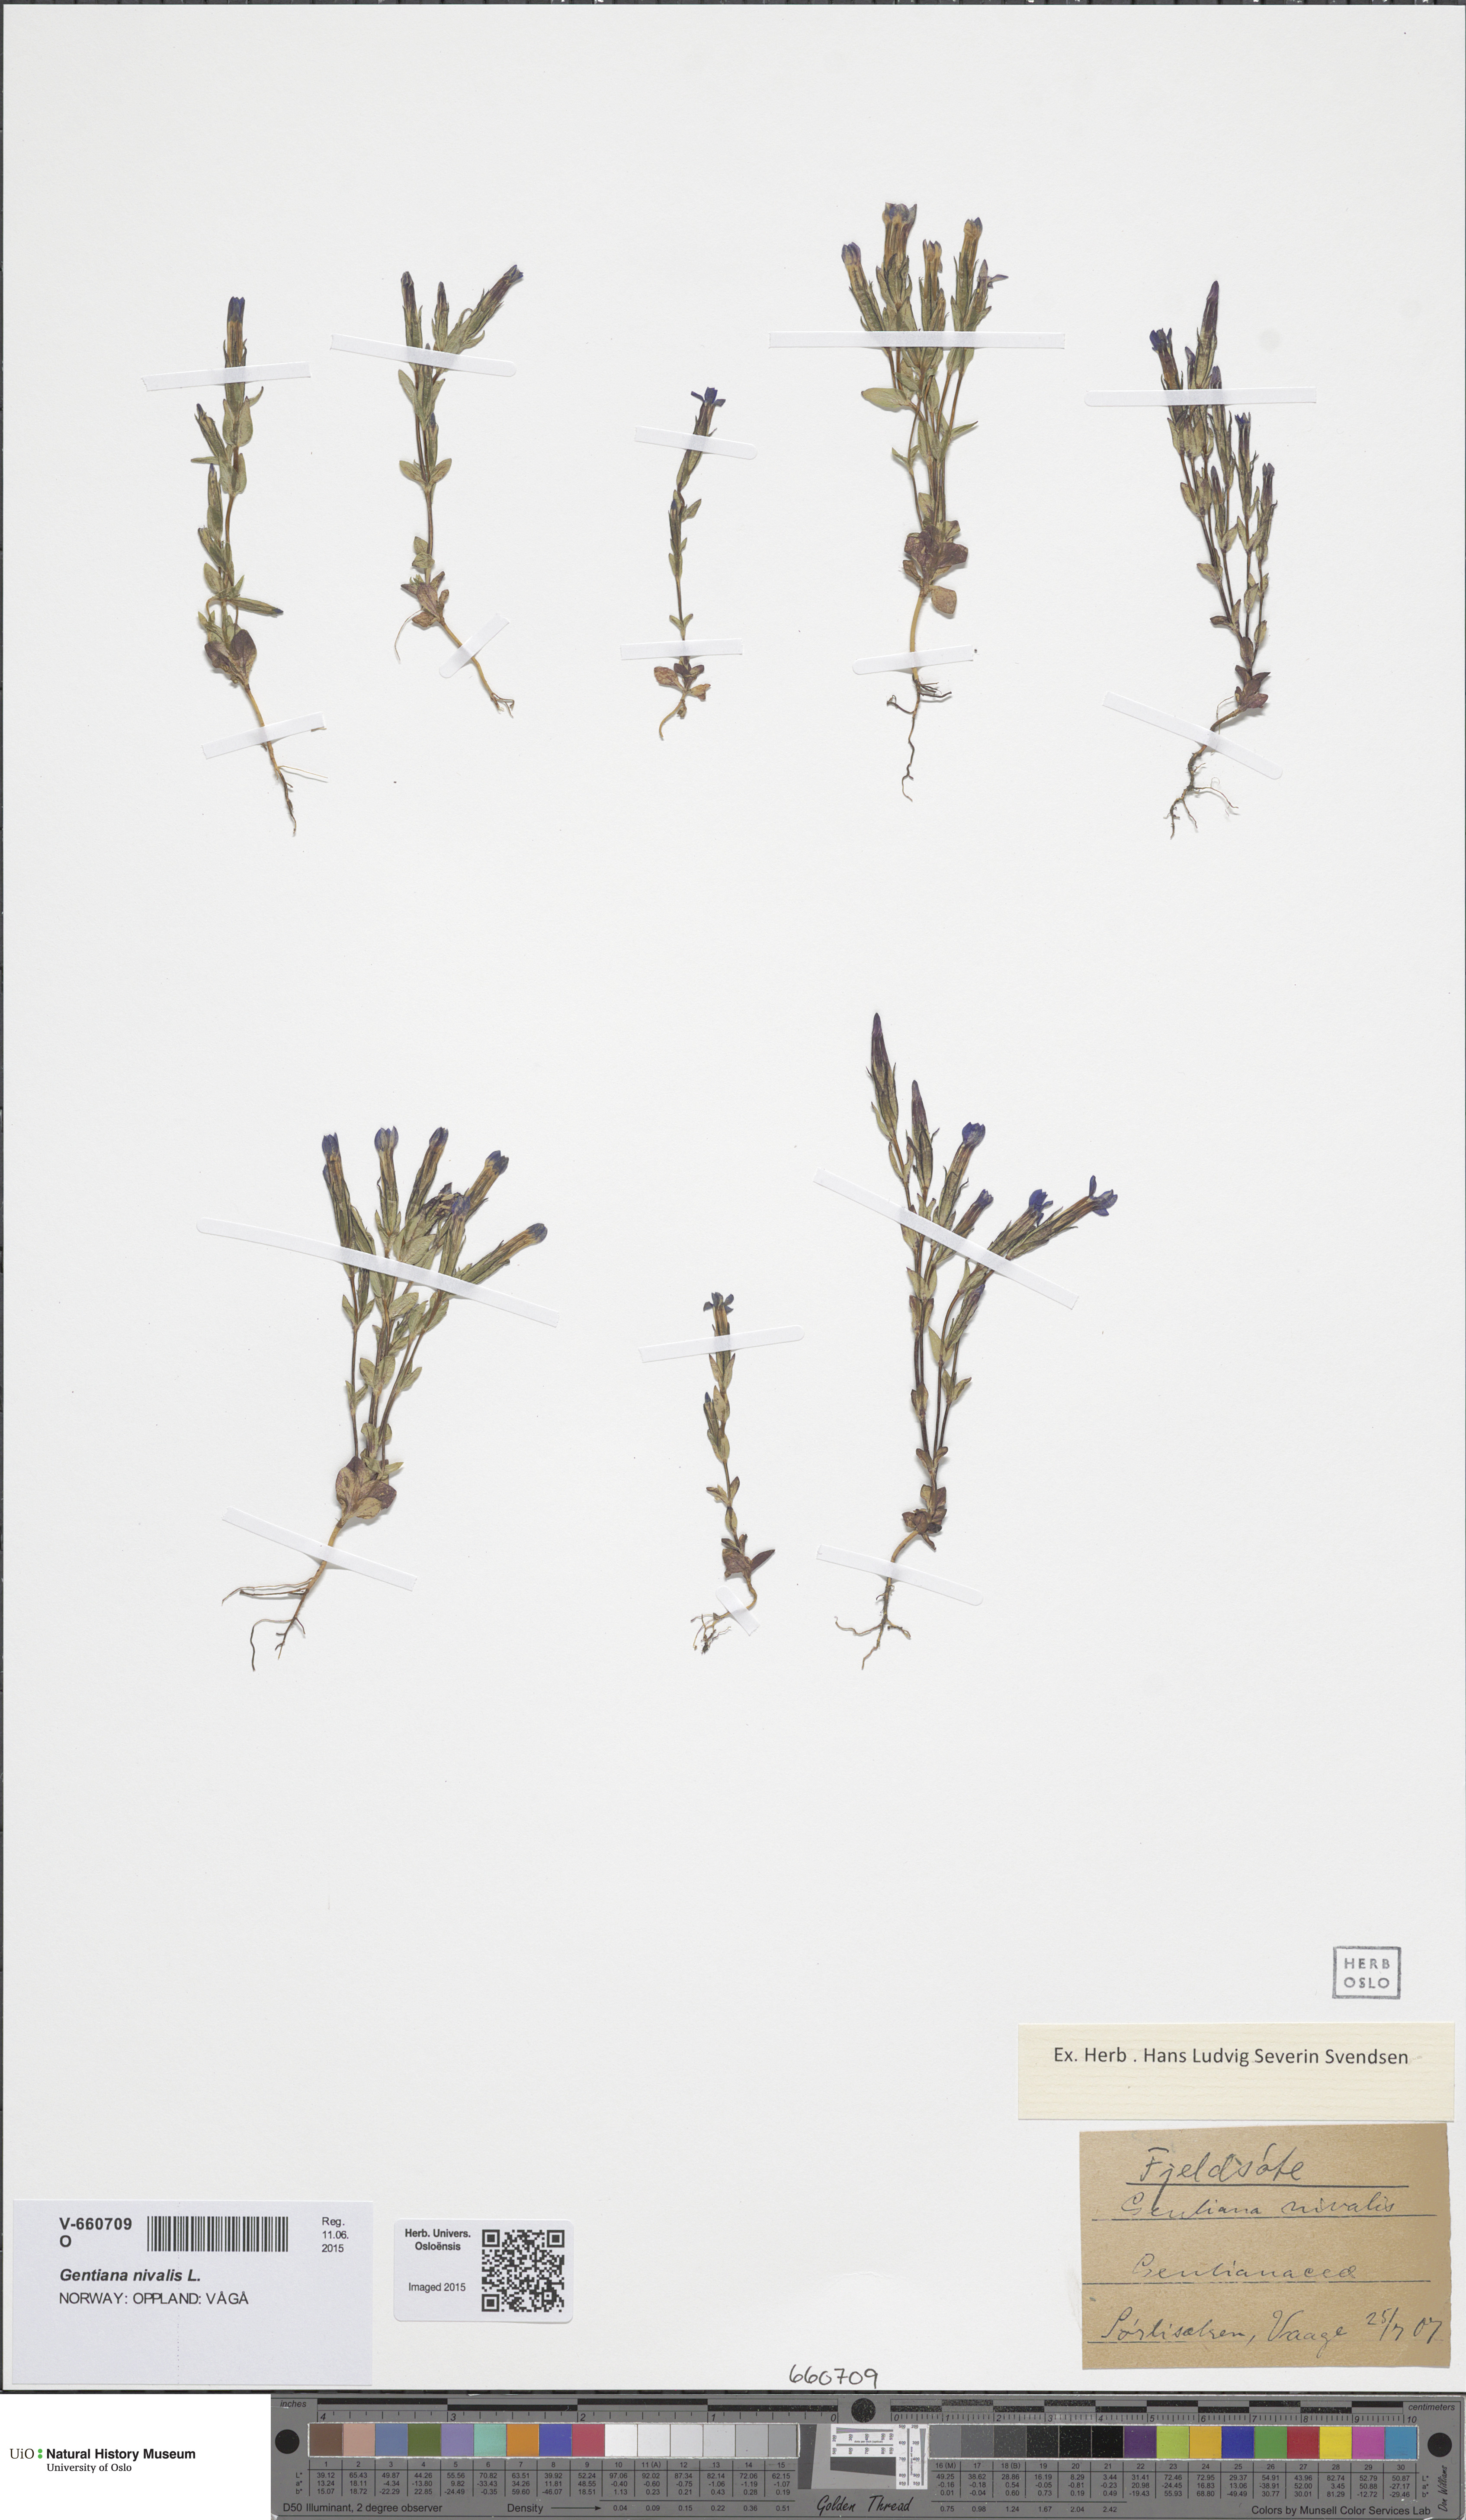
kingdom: Plantae
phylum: Tracheophyta
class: Magnoliopsida
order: Gentianales
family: Gentianaceae
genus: Gentiana
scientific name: Gentiana nivalis
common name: Alpine gentian
